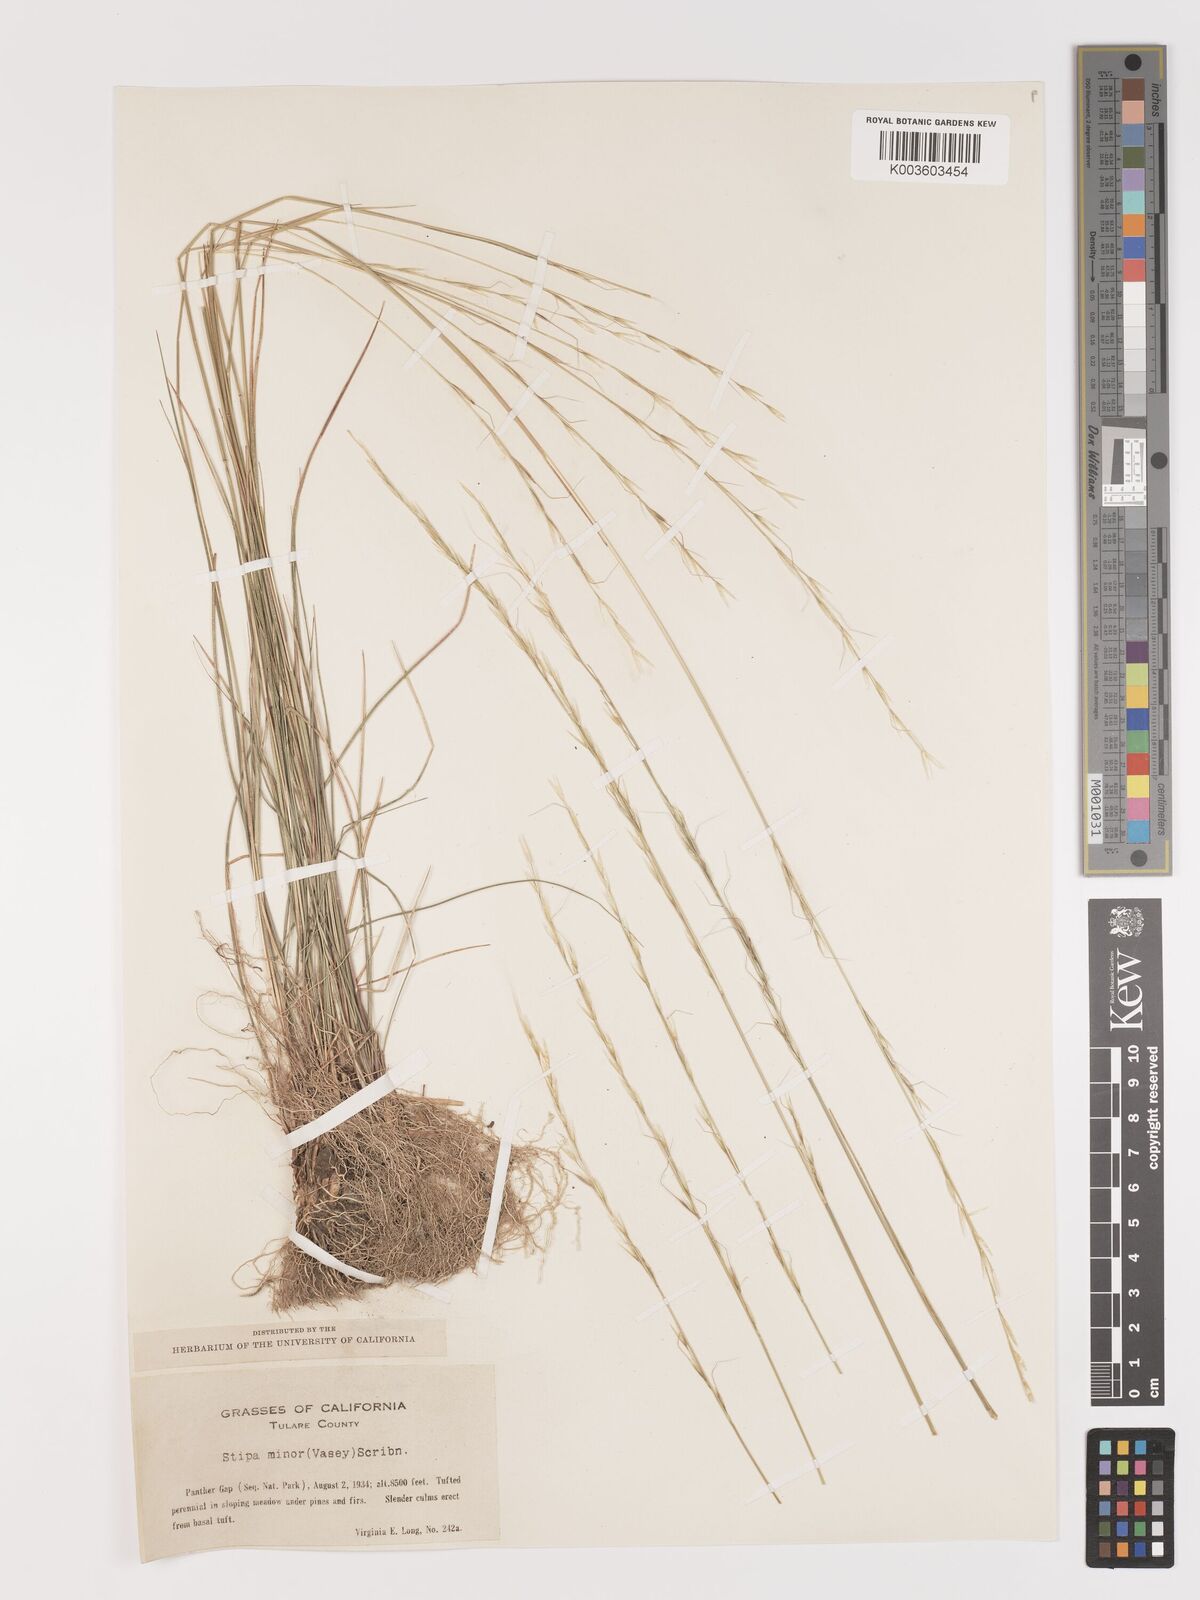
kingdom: Plantae
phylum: Tracheophyta
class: Liliopsida
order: Poales
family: Poaceae
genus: Eriocoma
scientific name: Eriocoma nelsonii
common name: Nelson's needlegrass
